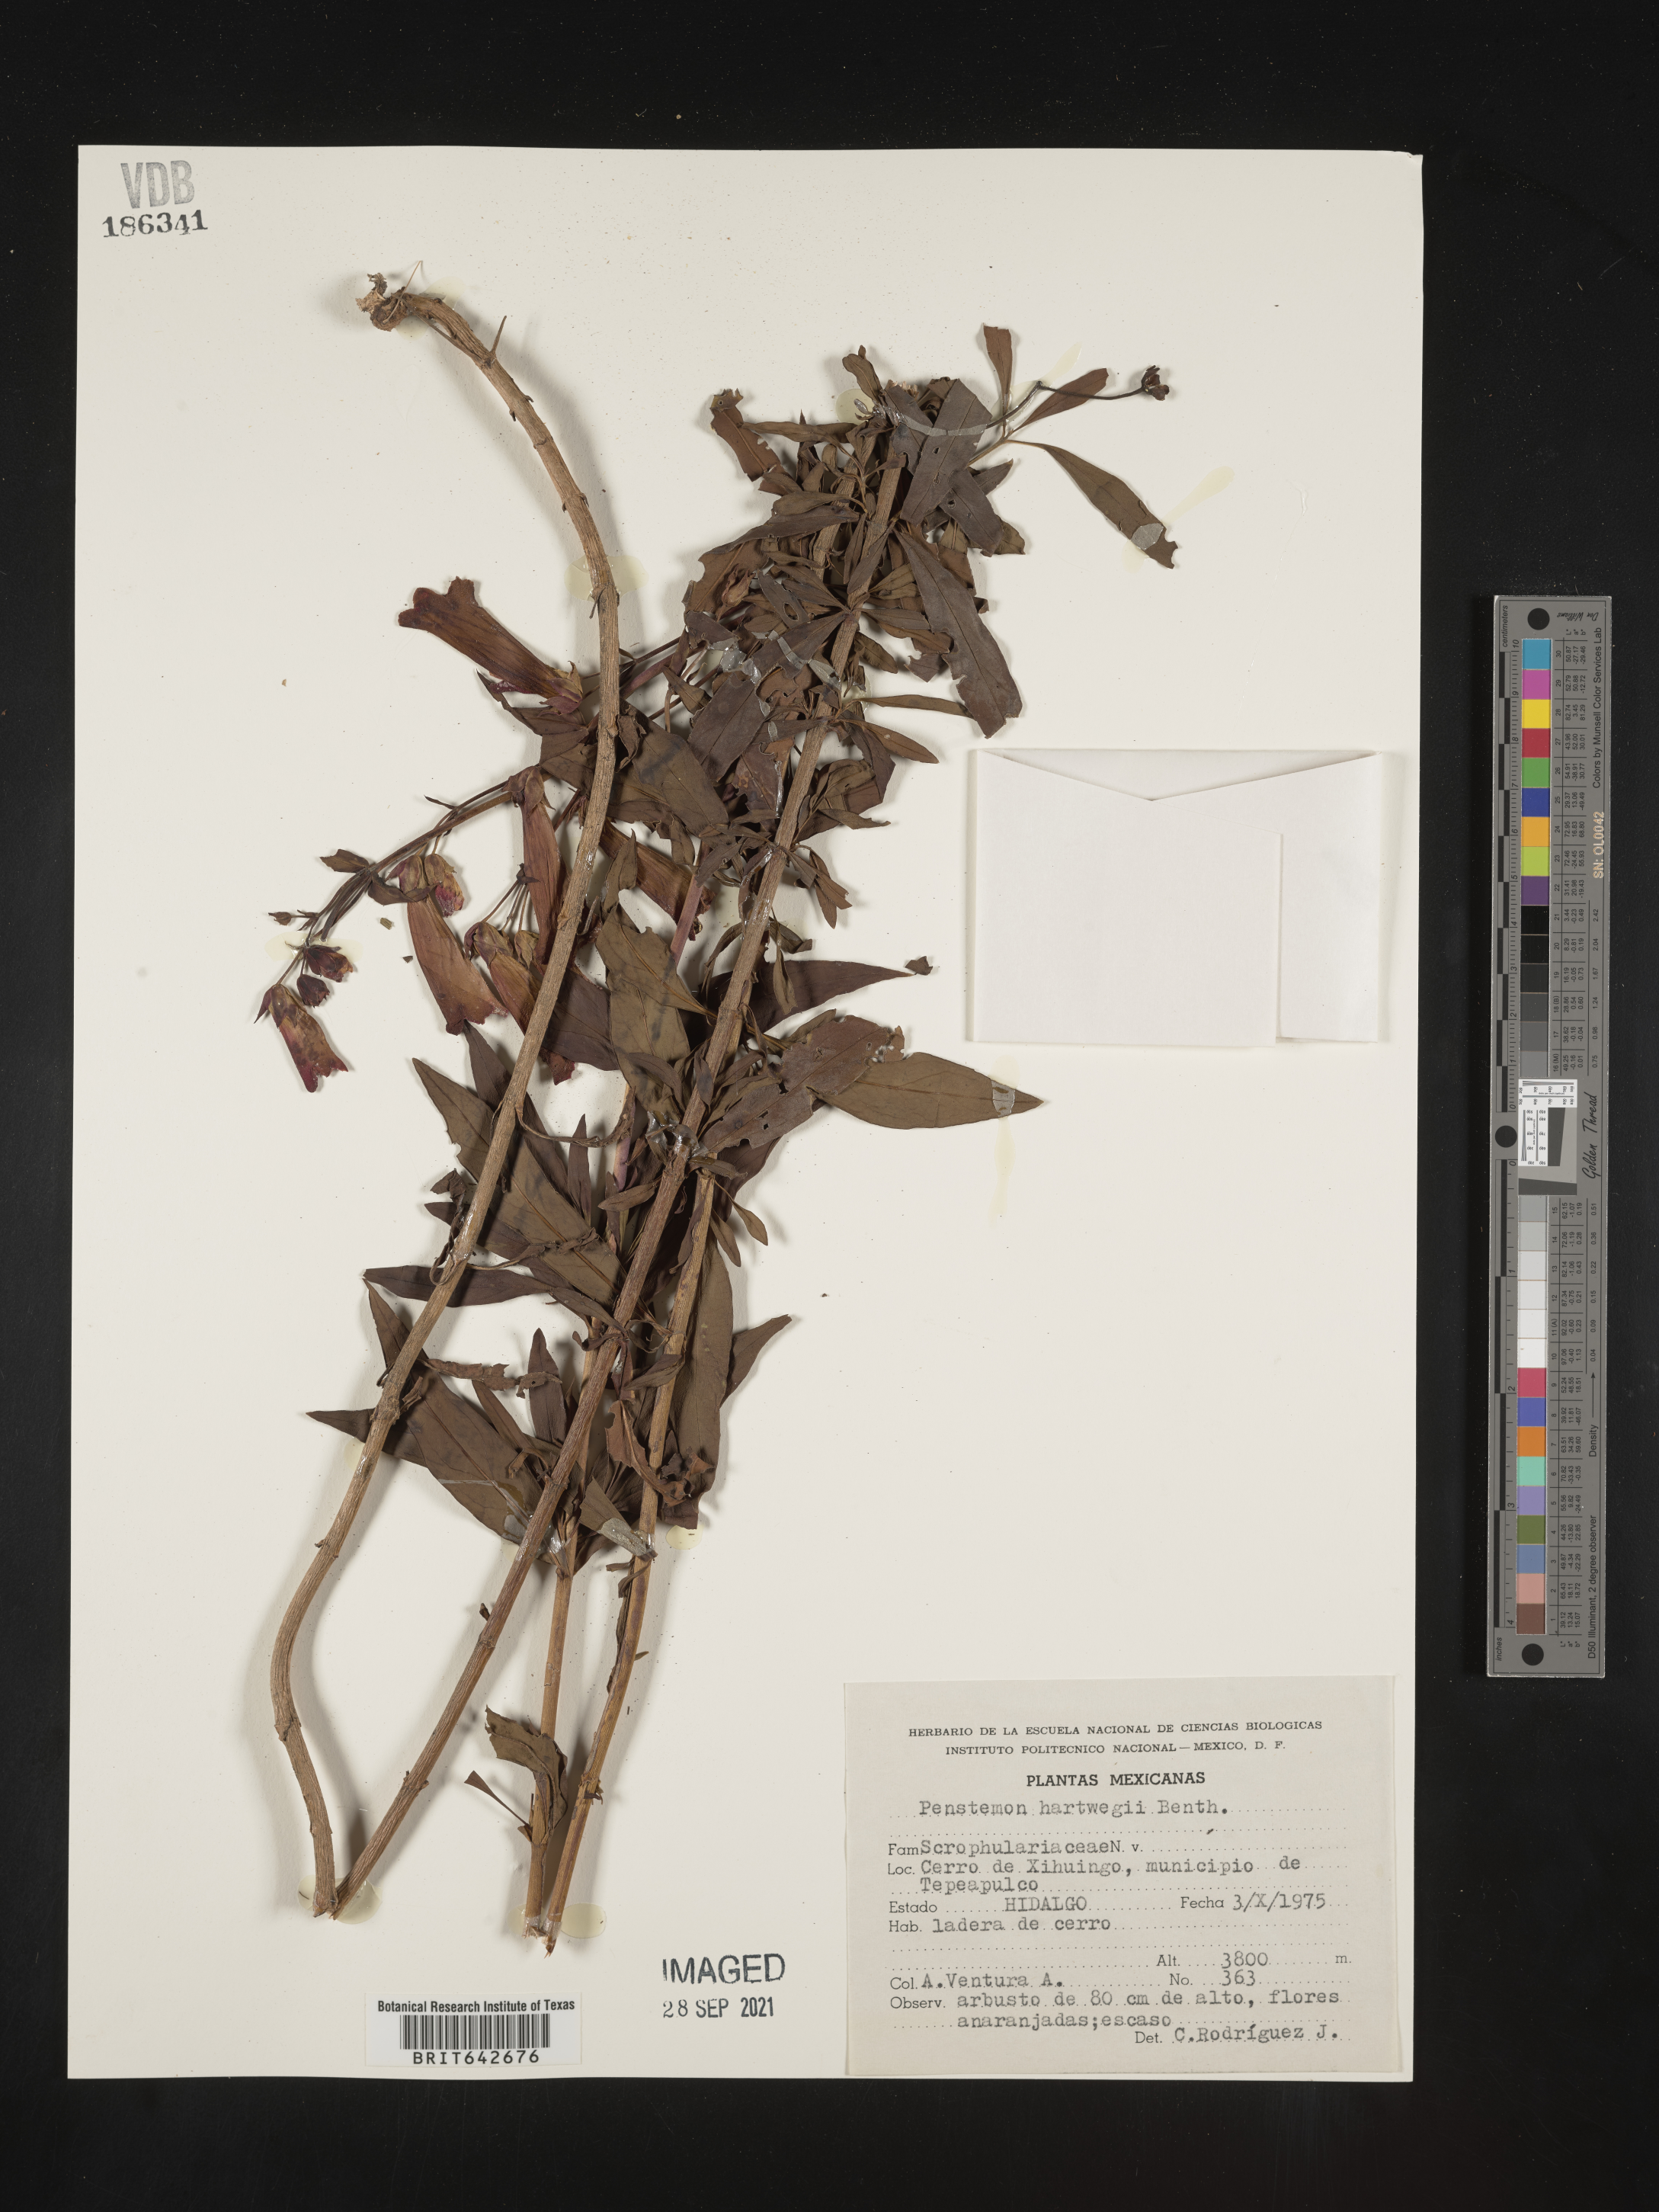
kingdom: Plantae
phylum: Tracheophyta
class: Magnoliopsida
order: Lamiales
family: Plantaginaceae
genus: Penstemon
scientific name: Penstemon
